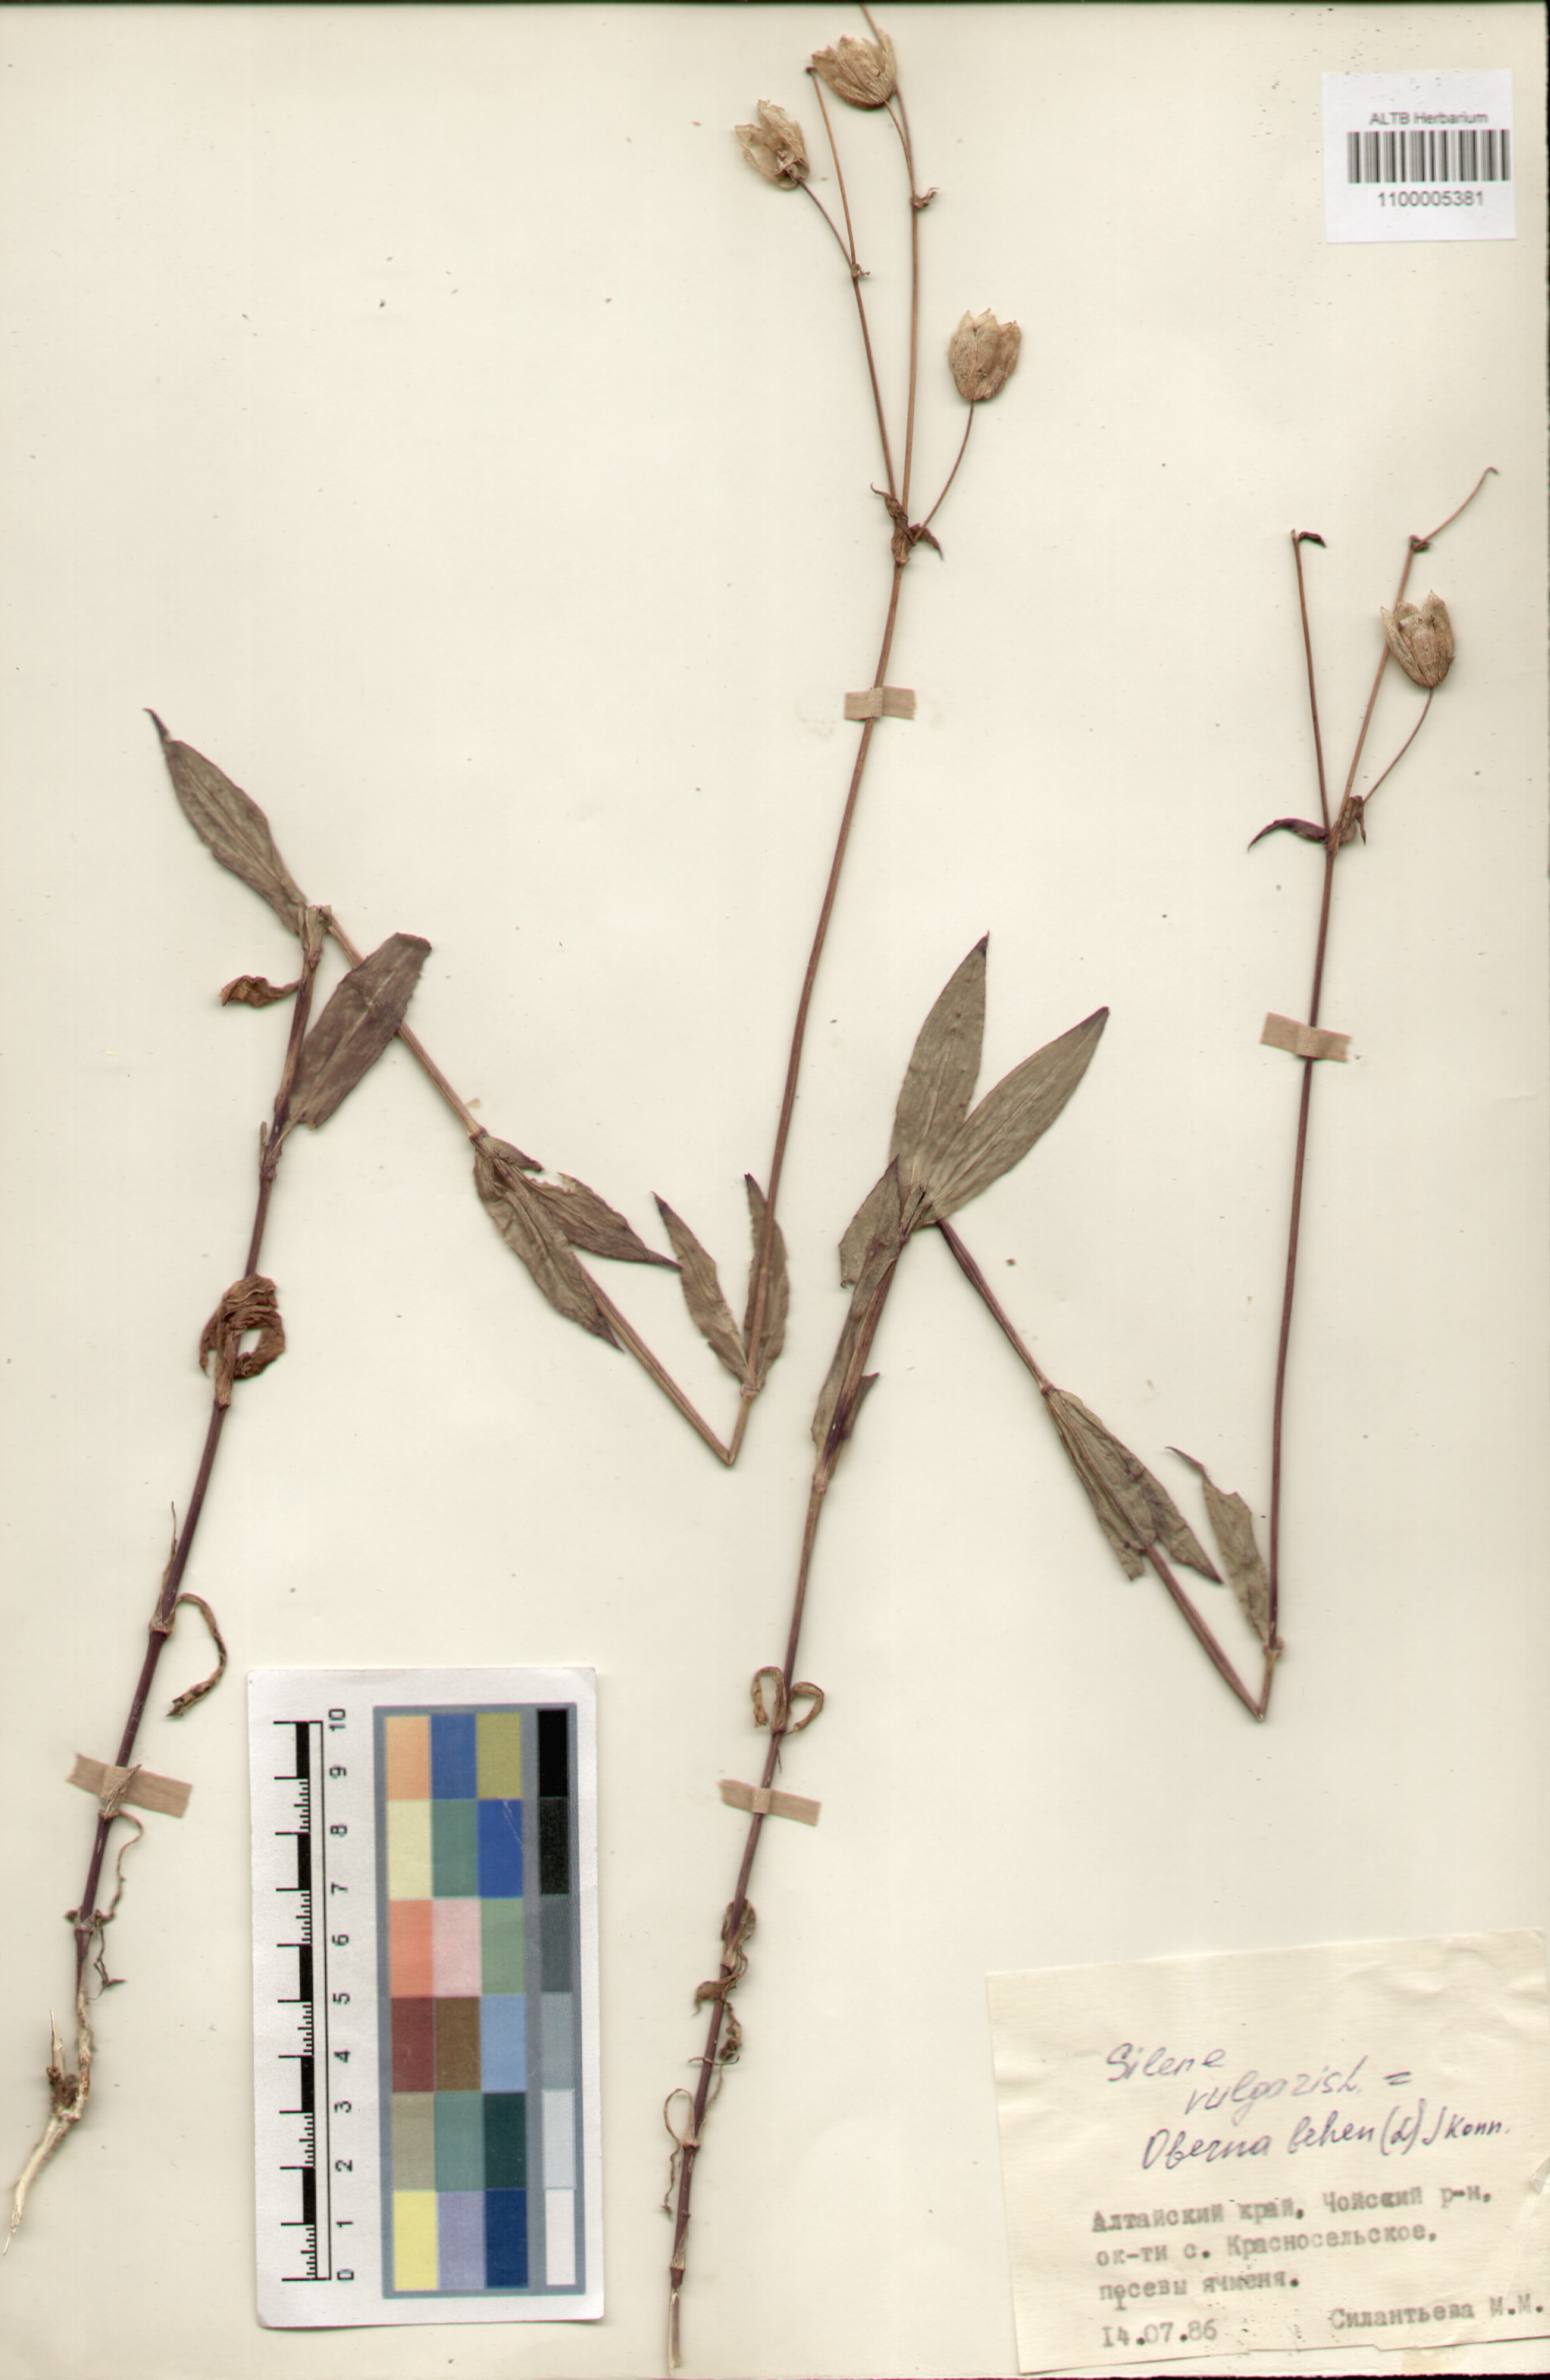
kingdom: Plantae
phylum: Tracheophyta
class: Magnoliopsida
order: Caryophyllales
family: Caryophyllaceae
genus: Silene
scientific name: Silene vulgaris
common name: Bladder campion
